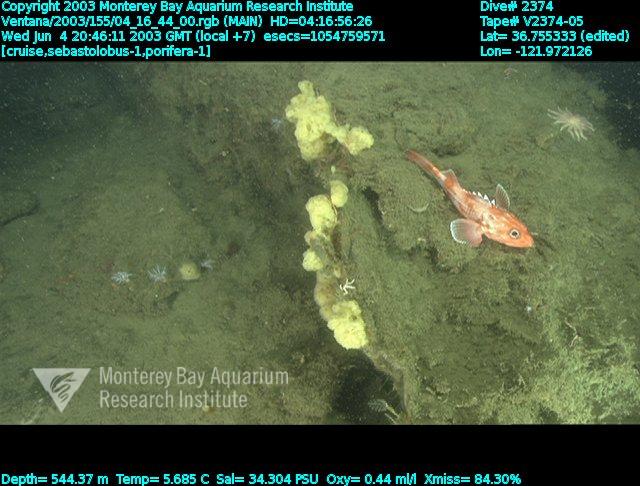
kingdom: Animalia
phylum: Porifera
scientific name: Porifera
